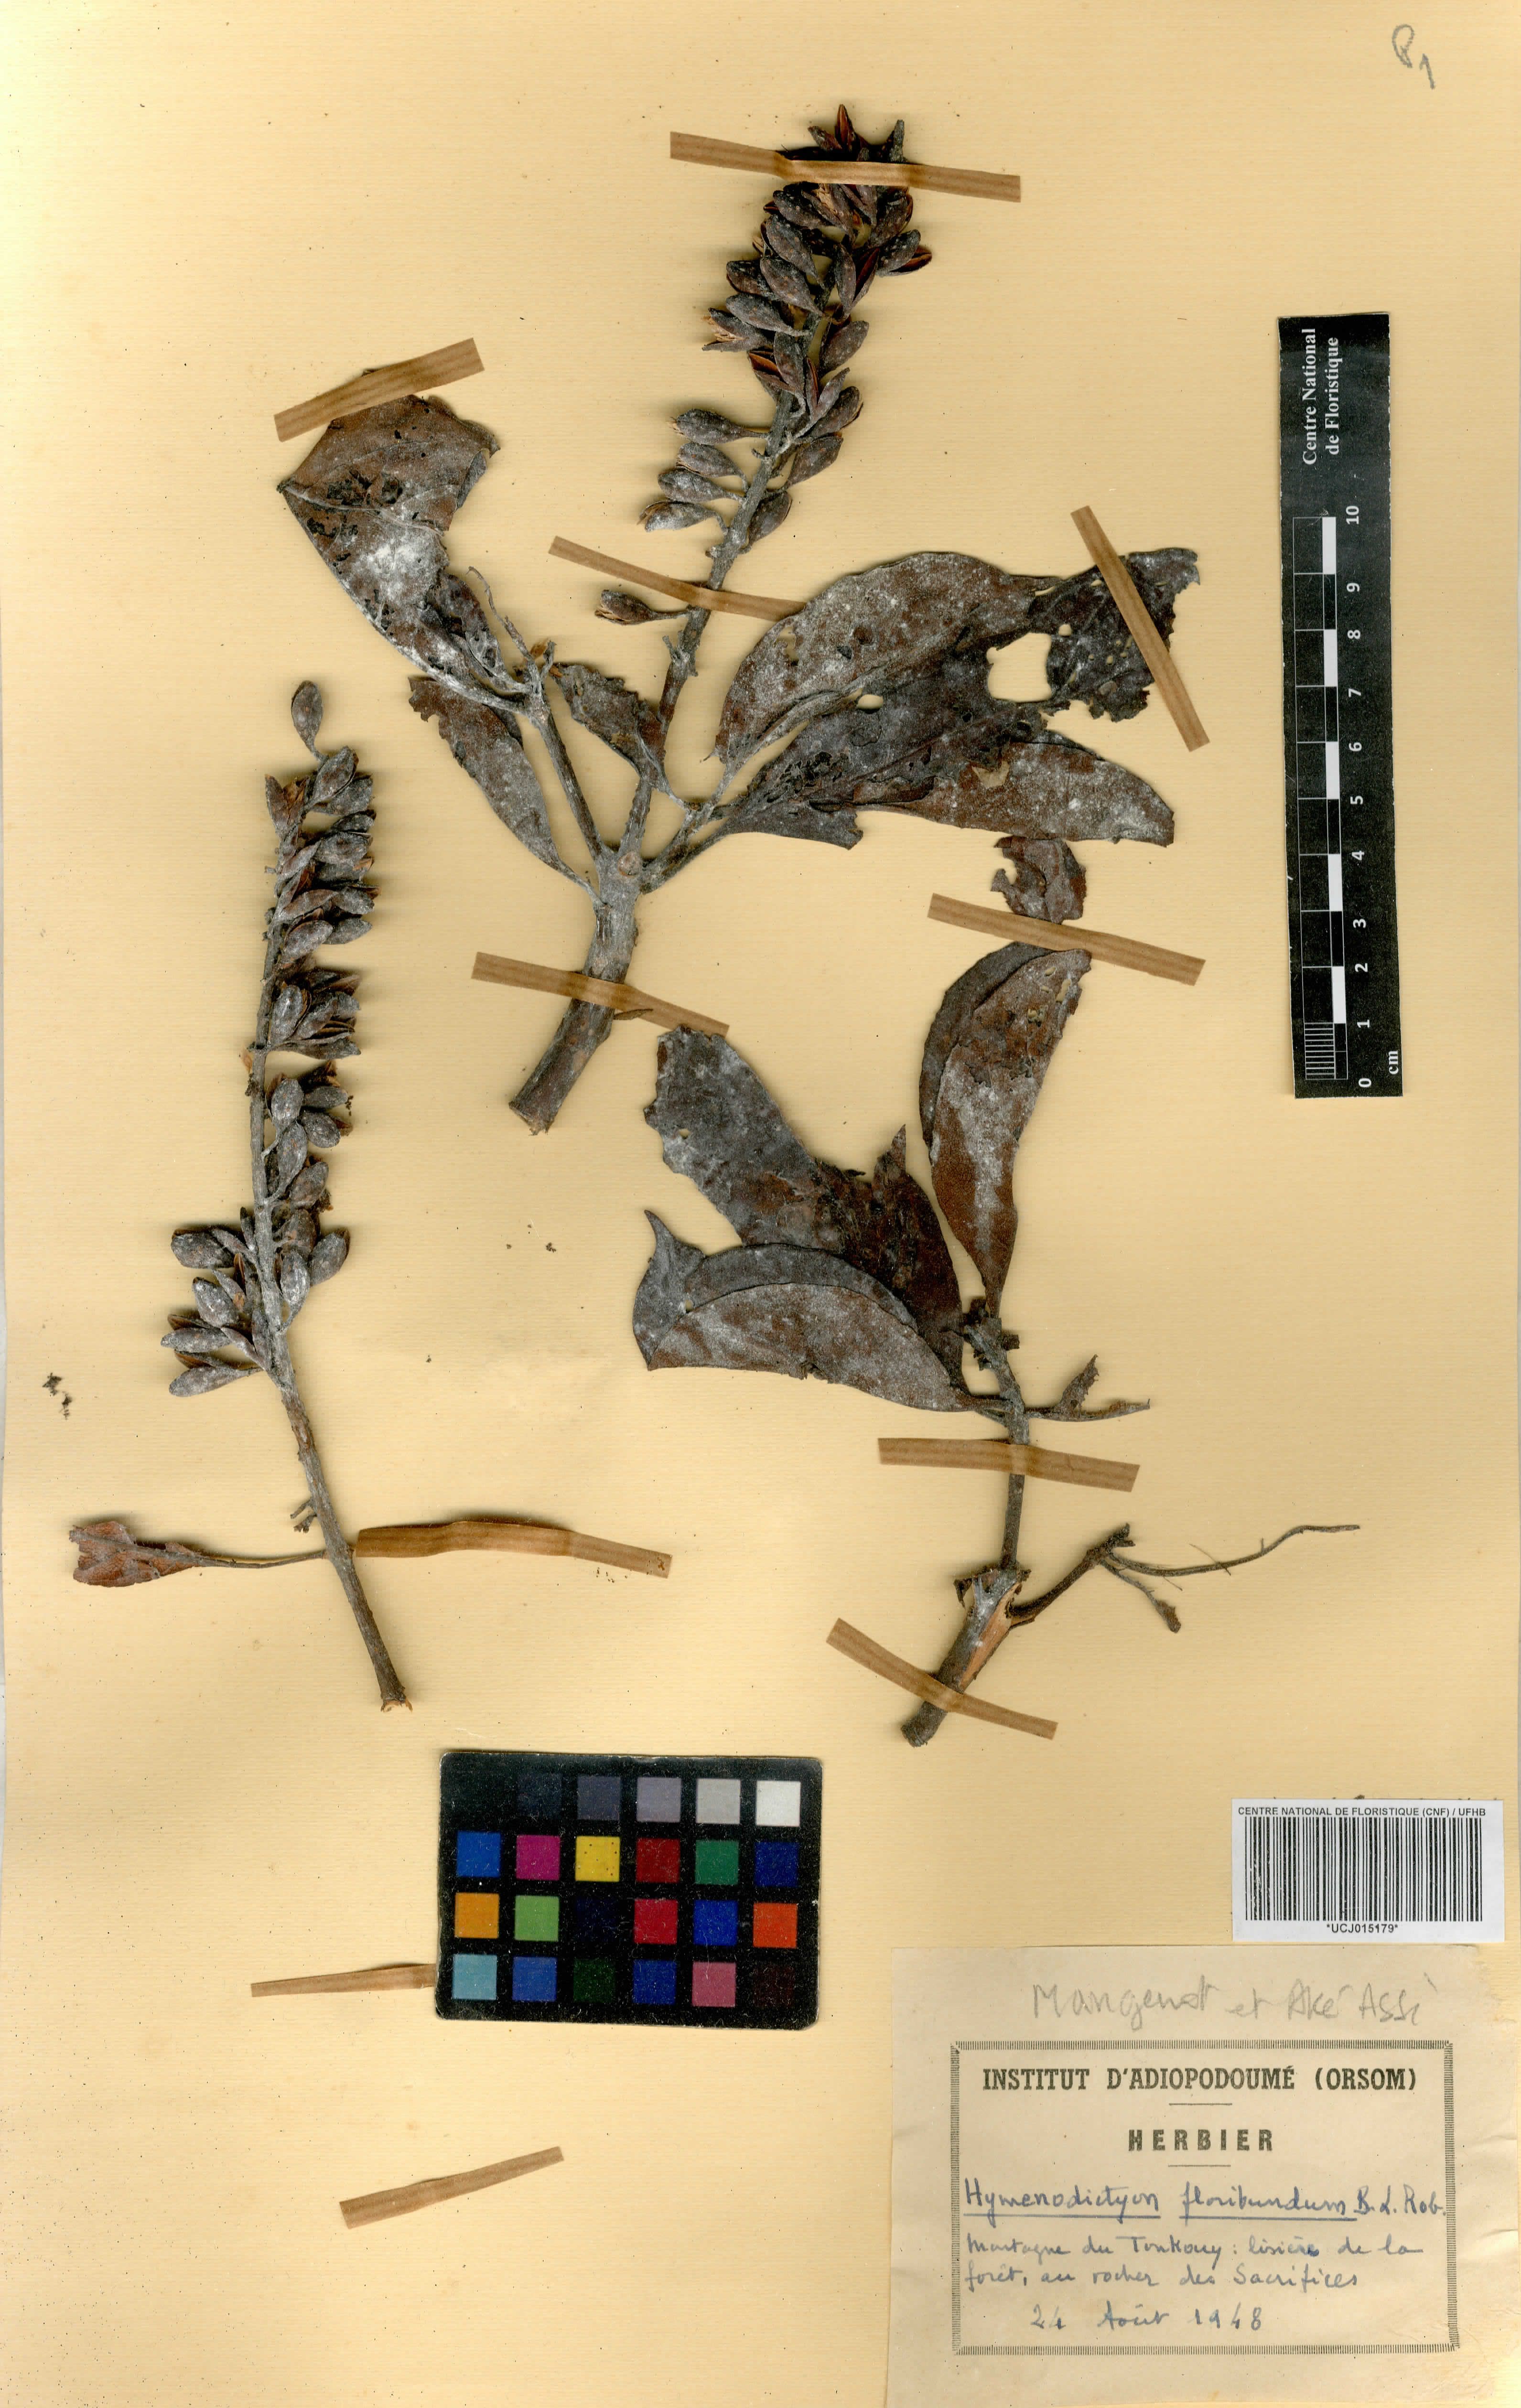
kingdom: Plantae
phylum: Tracheophyta
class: Magnoliopsida
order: Gentianales
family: Rubiaceae
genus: Hymenodictyon
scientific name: Hymenodictyon floribundum
